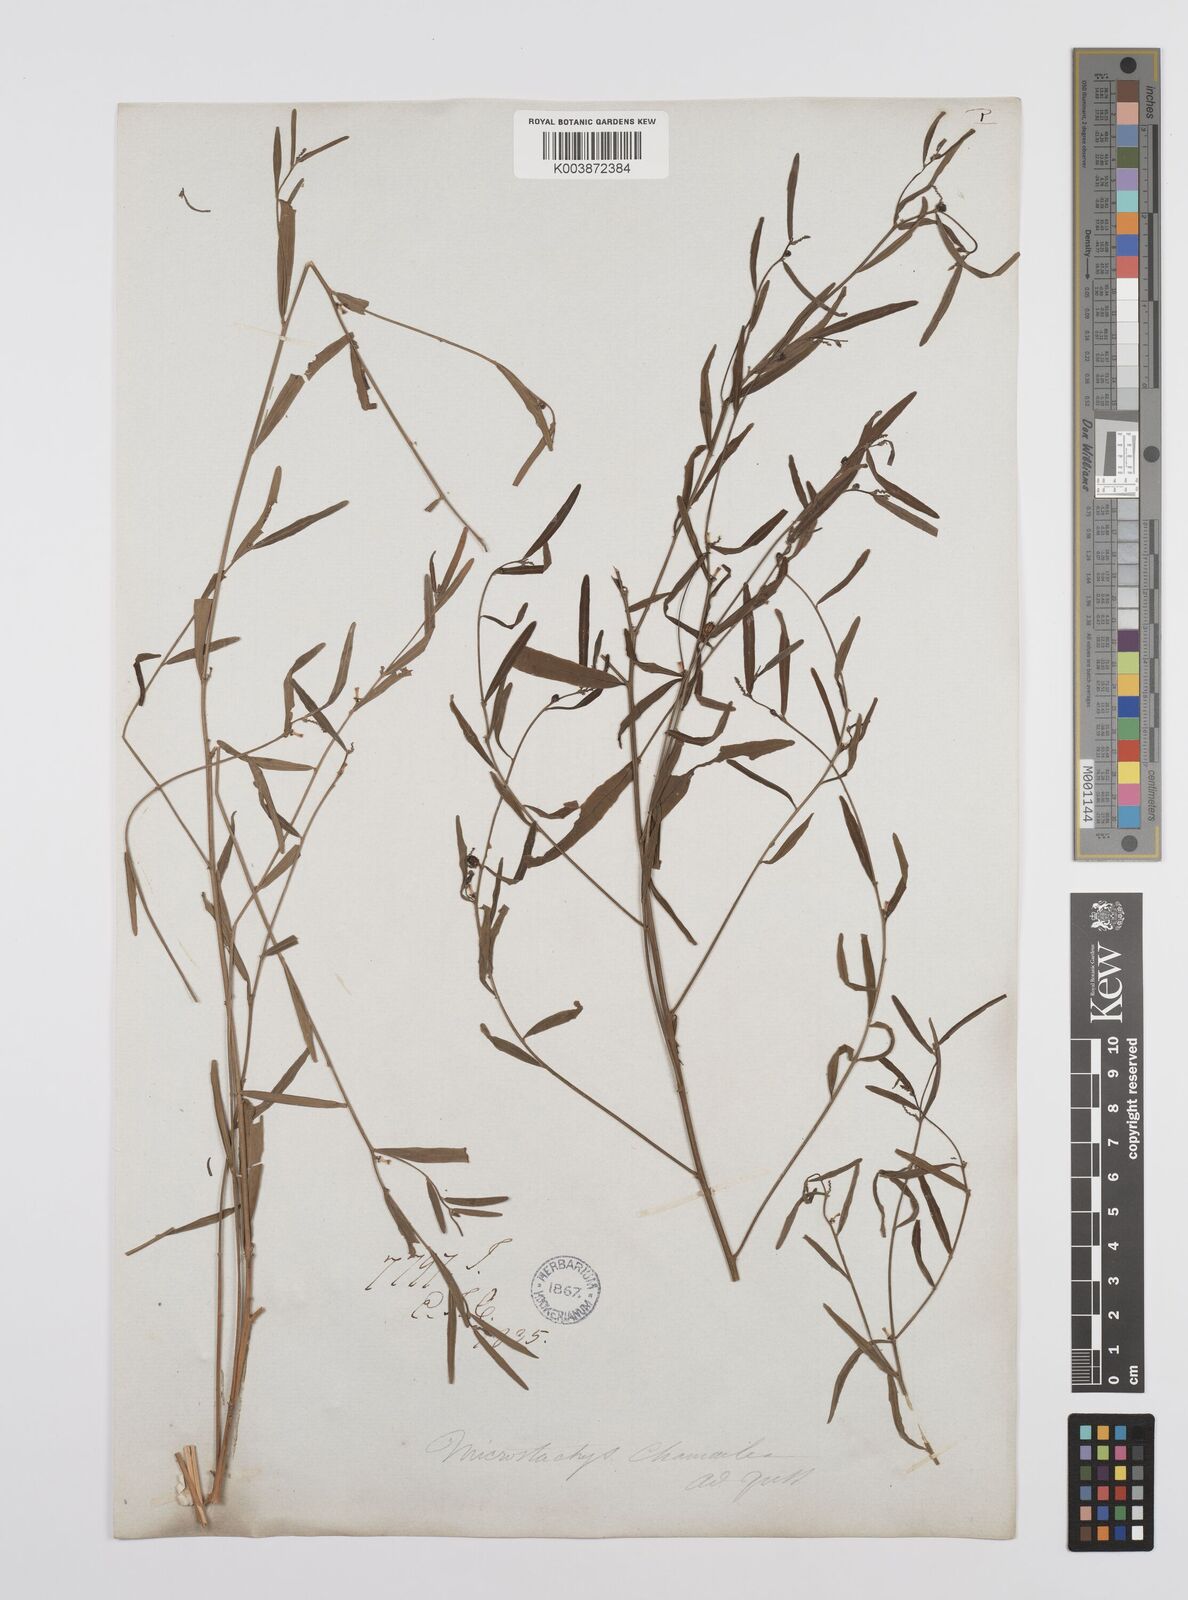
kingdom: Plantae
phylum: Tracheophyta
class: Magnoliopsida
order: Malpighiales
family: Euphorbiaceae
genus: Microstachys
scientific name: Microstachys chamaelea
